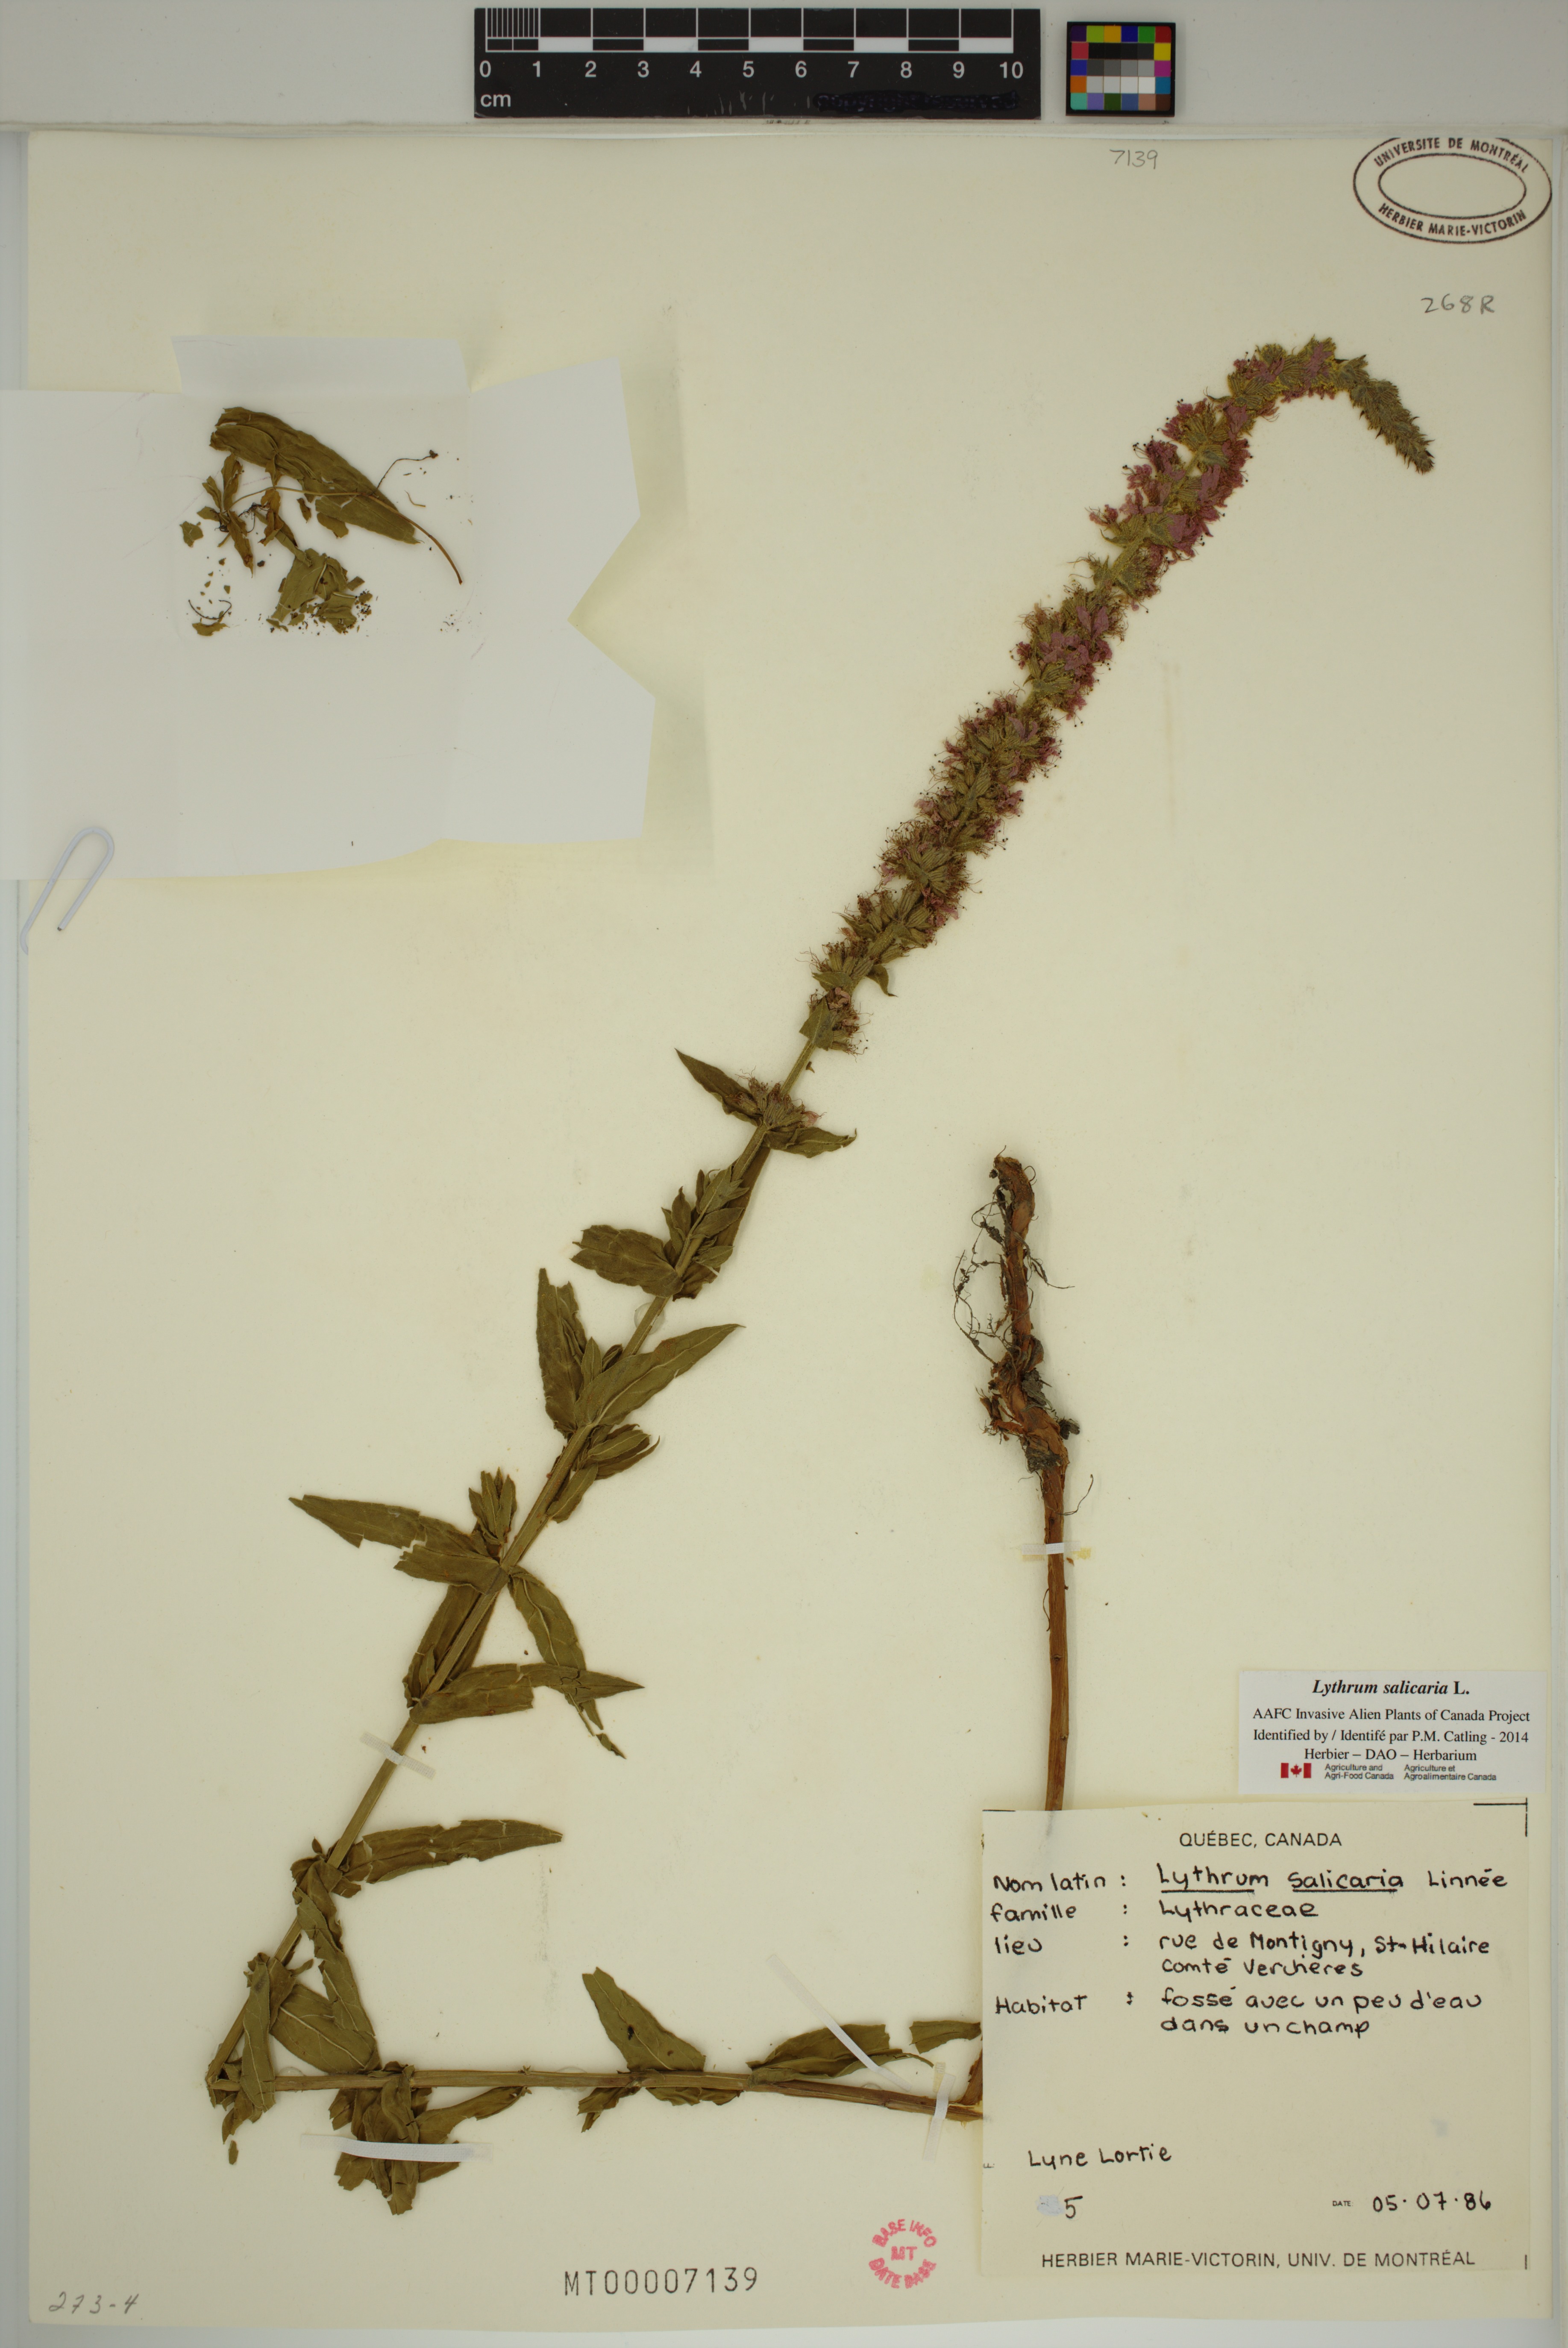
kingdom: Plantae
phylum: Tracheophyta
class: Magnoliopsida
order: Myrtales
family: Lythraceae
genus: Lythrum
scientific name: Lythrum salicaria
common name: Purple loosestrife
